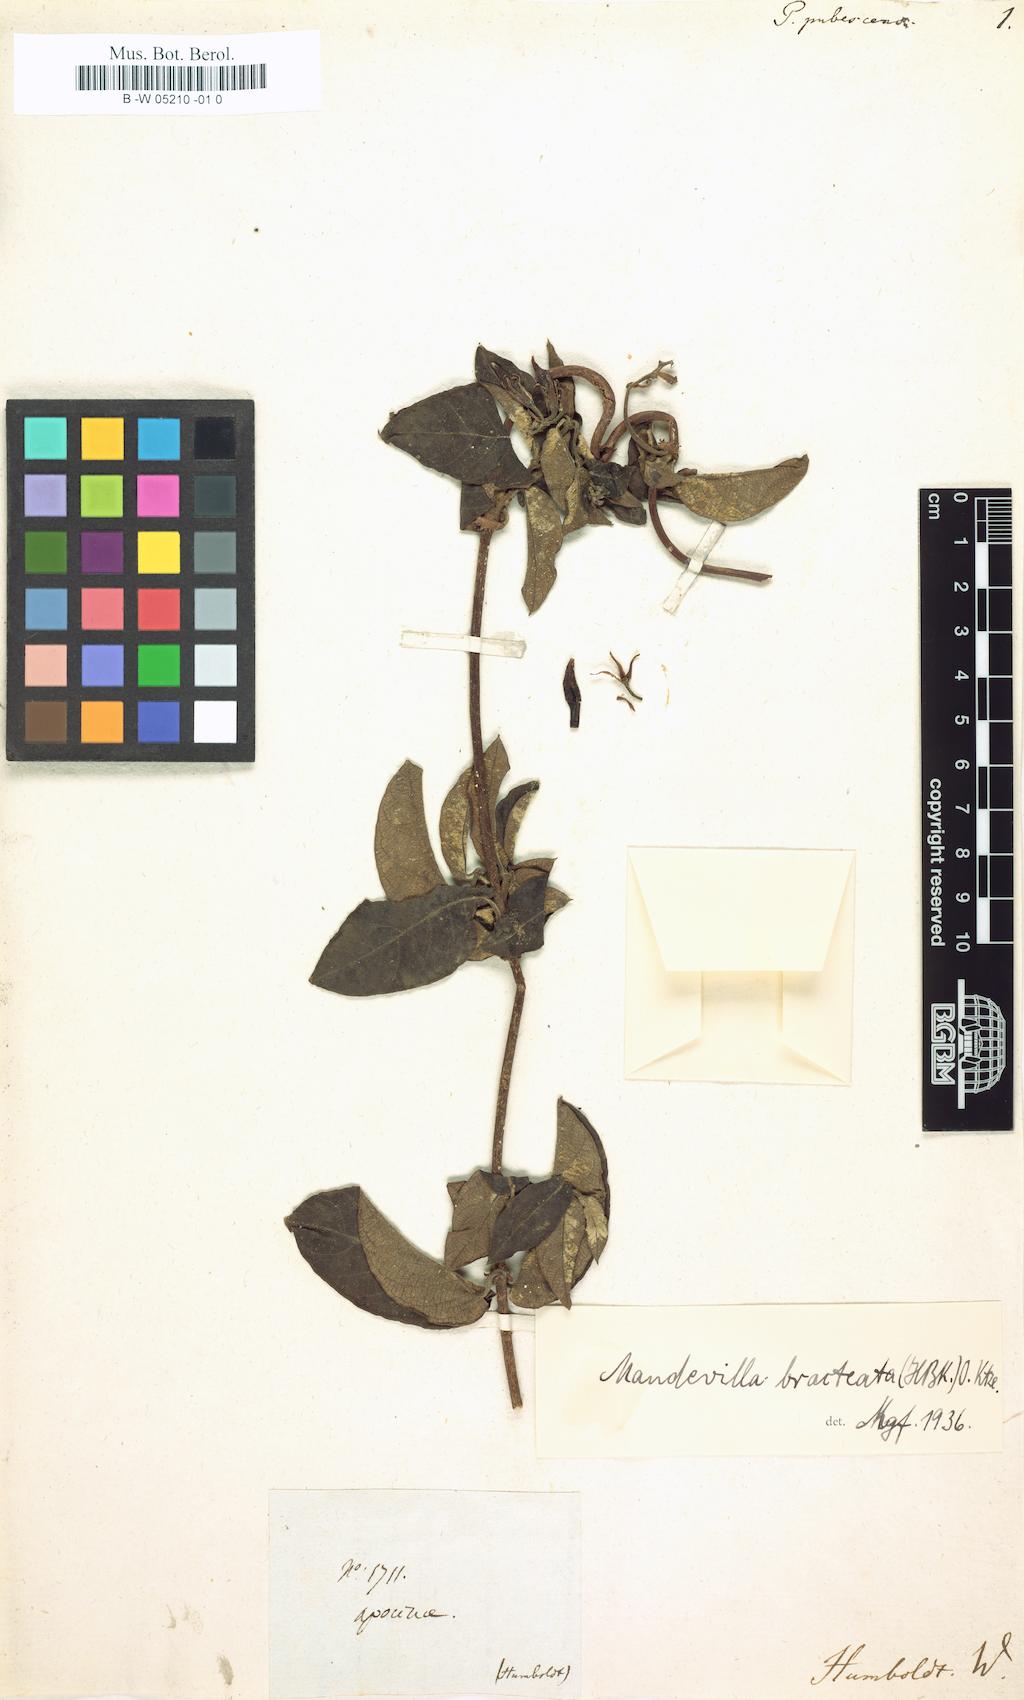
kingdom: Plantae
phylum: Tracheophyta
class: Magnoliopsida
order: Gentianales
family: Apocynaceae
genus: Mandevilla
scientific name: Mandevilla bracteata
